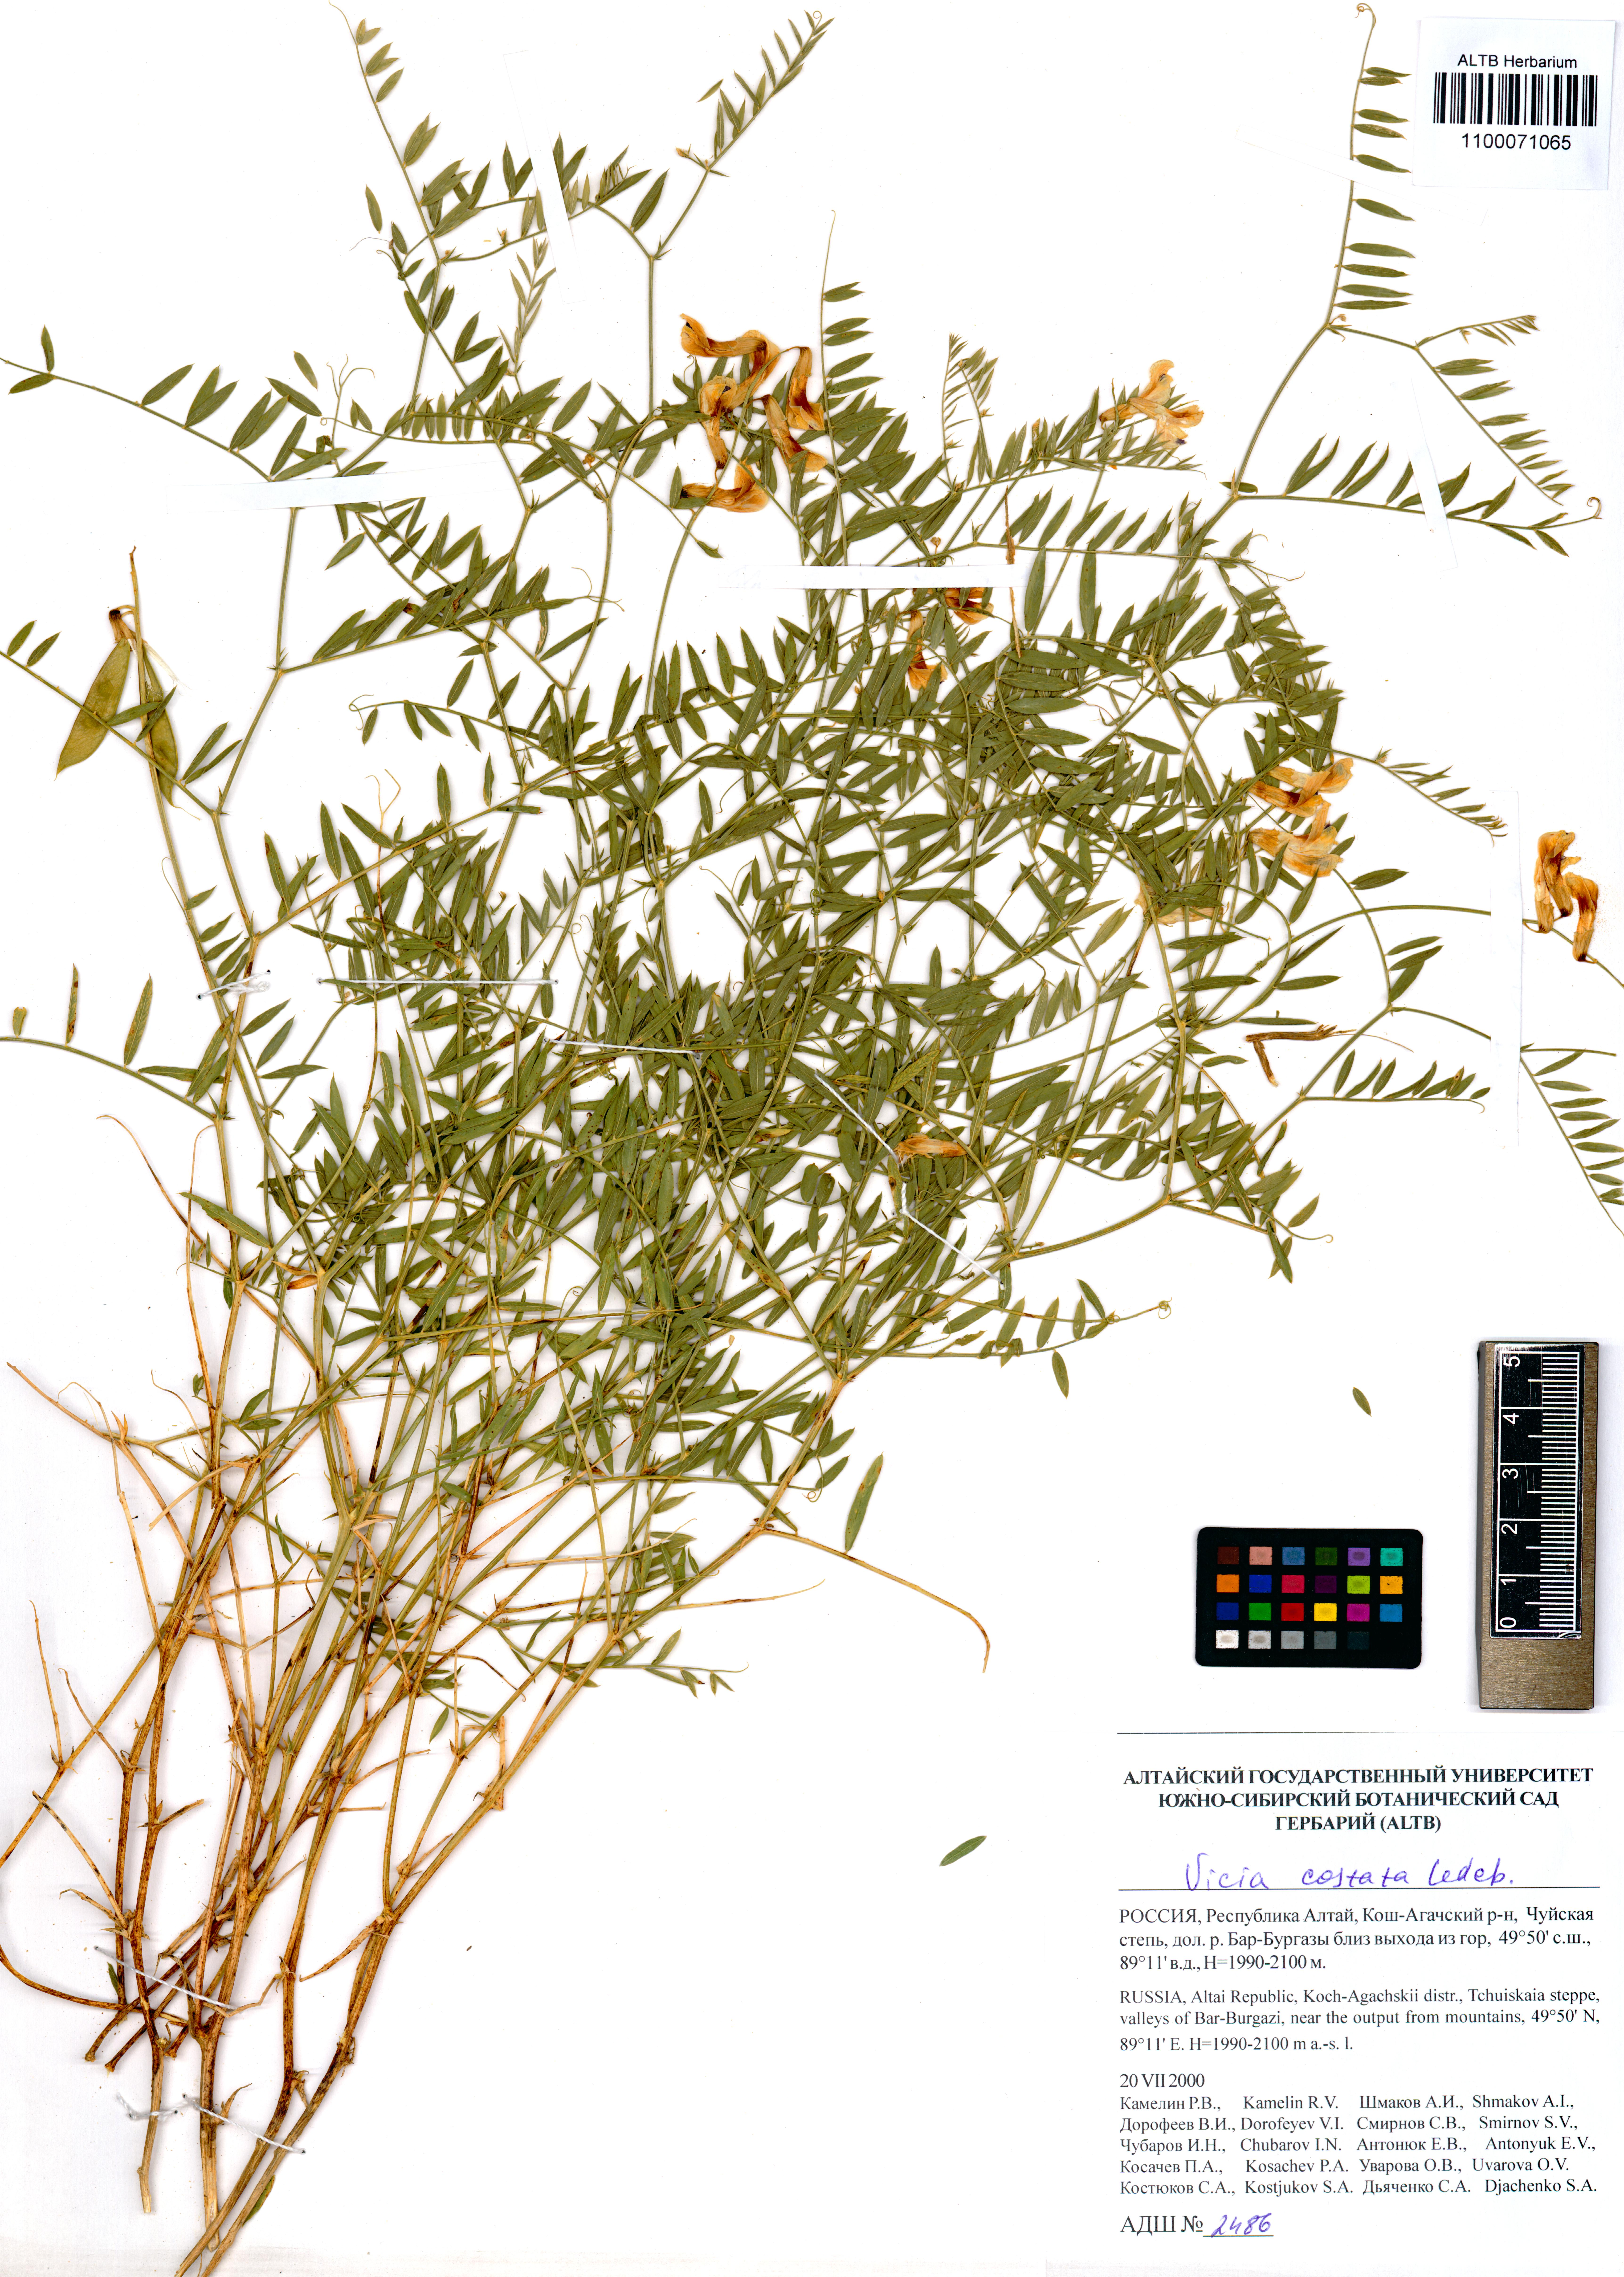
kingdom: Plantae
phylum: Tracheophyta
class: Magnoliopsida
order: Fabales
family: Fabaceae
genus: Vicia
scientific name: Vicia costata
